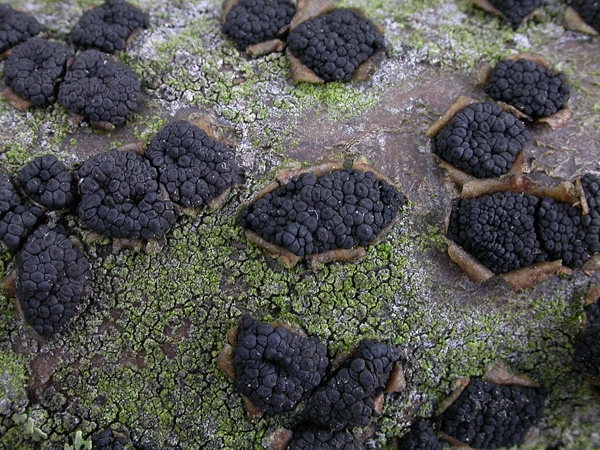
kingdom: Fungi
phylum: Ascomycota
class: Dothideomycetes
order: Pleosporales
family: Camarosporidiellaceae
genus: Camarosporidiella
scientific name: Camarosporidiella laburni
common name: guldregn-tykbær
